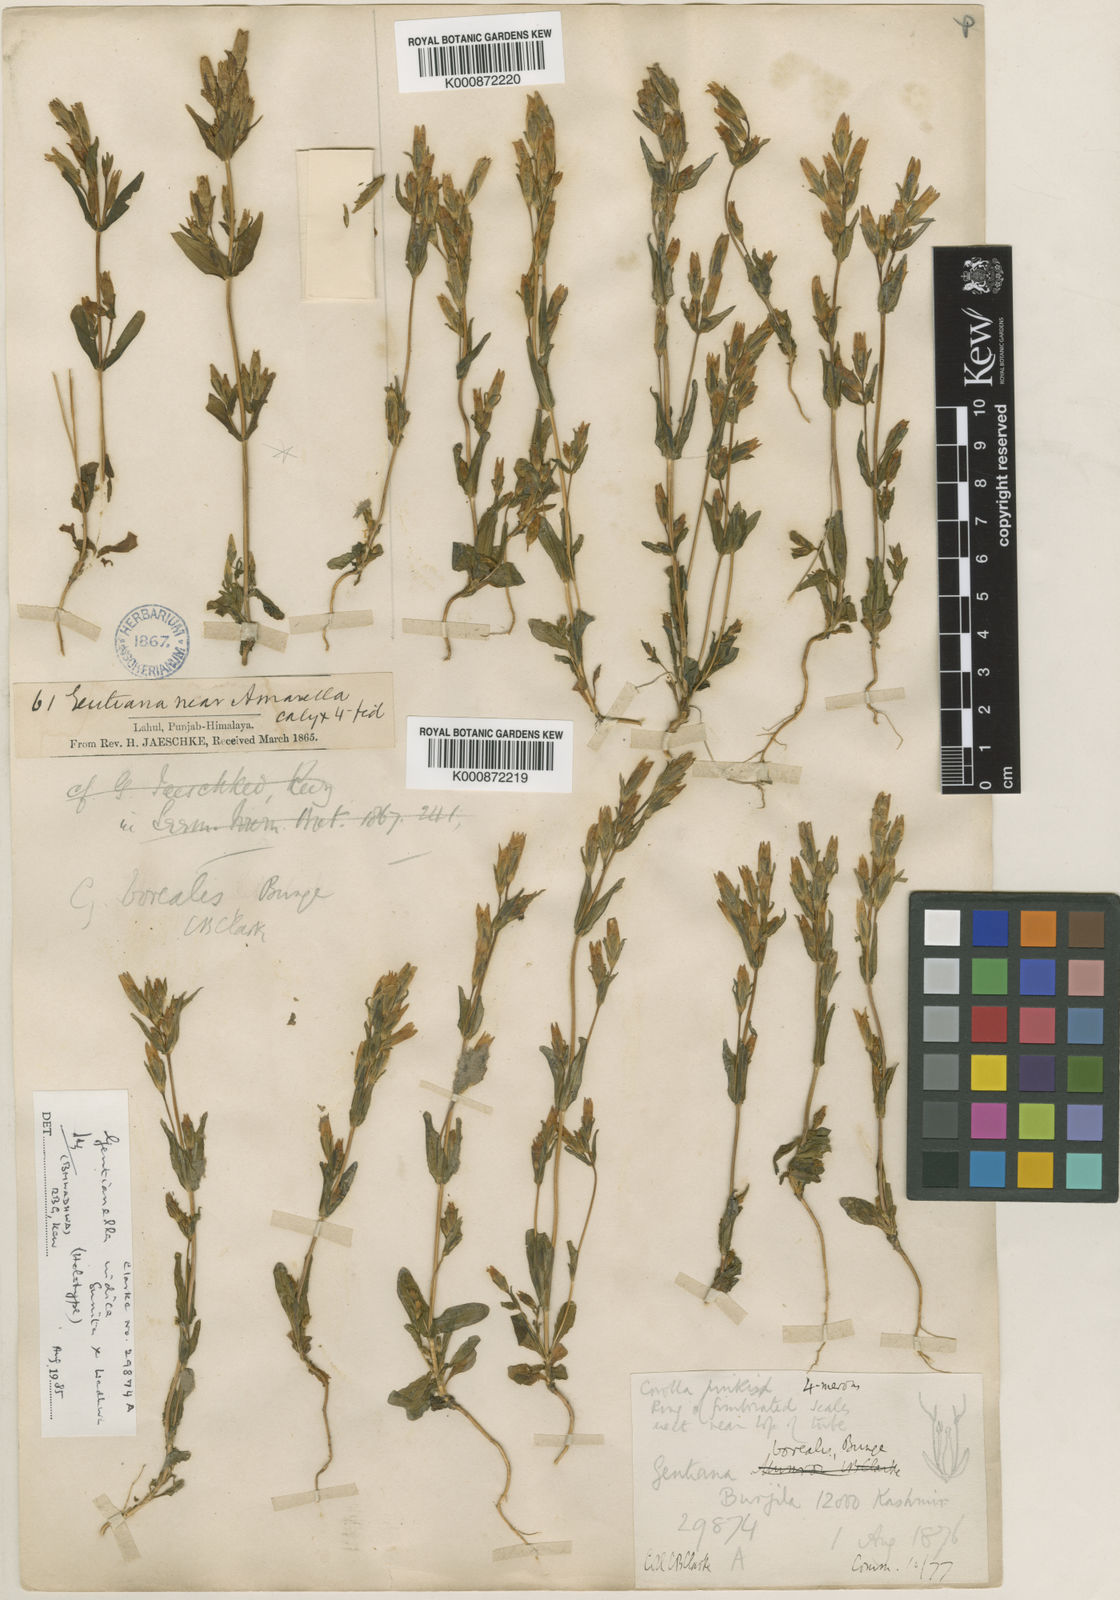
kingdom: Plantae
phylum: Tracheophyta
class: Magnoliopsida
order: Gentianales
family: Gentianaceae
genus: Gentiana
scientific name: Gentiana
